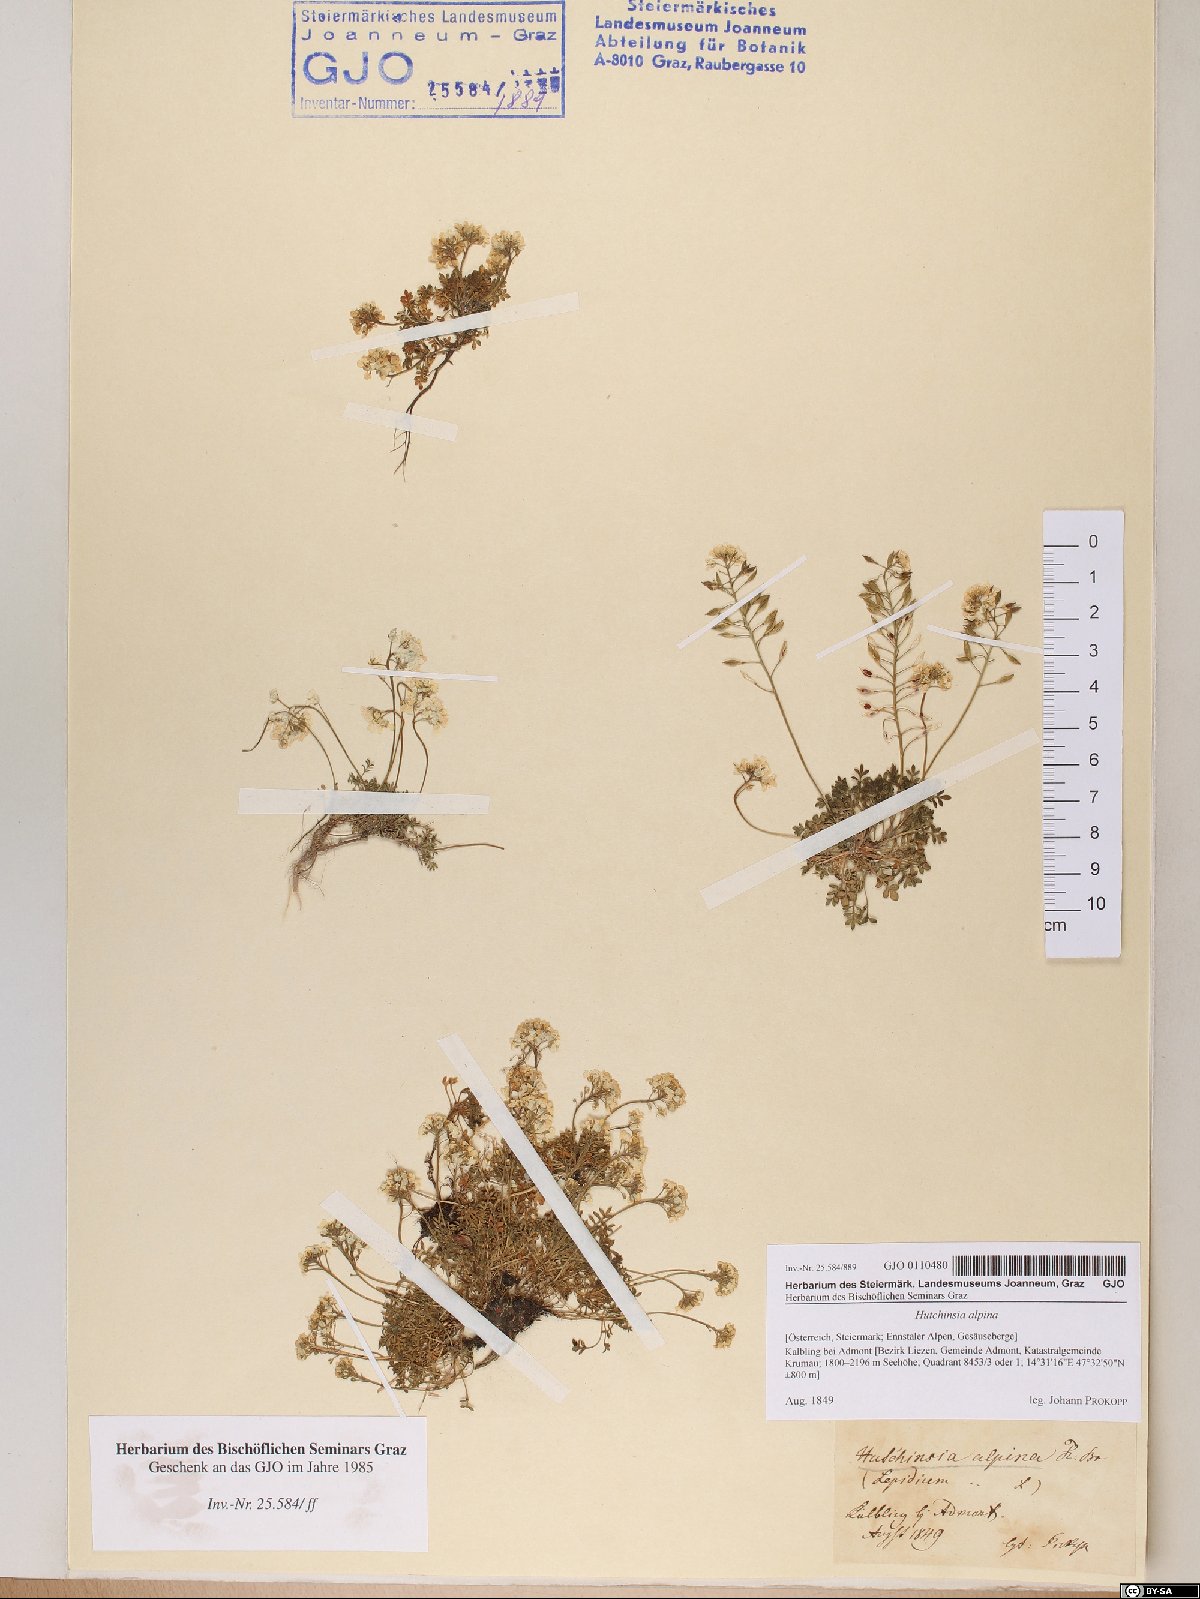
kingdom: Plantae
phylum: Tracheophyta
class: Magnoliopsida
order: Brassicales
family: Brassicaceae
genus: Hornungia
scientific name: Hornungia alpina
